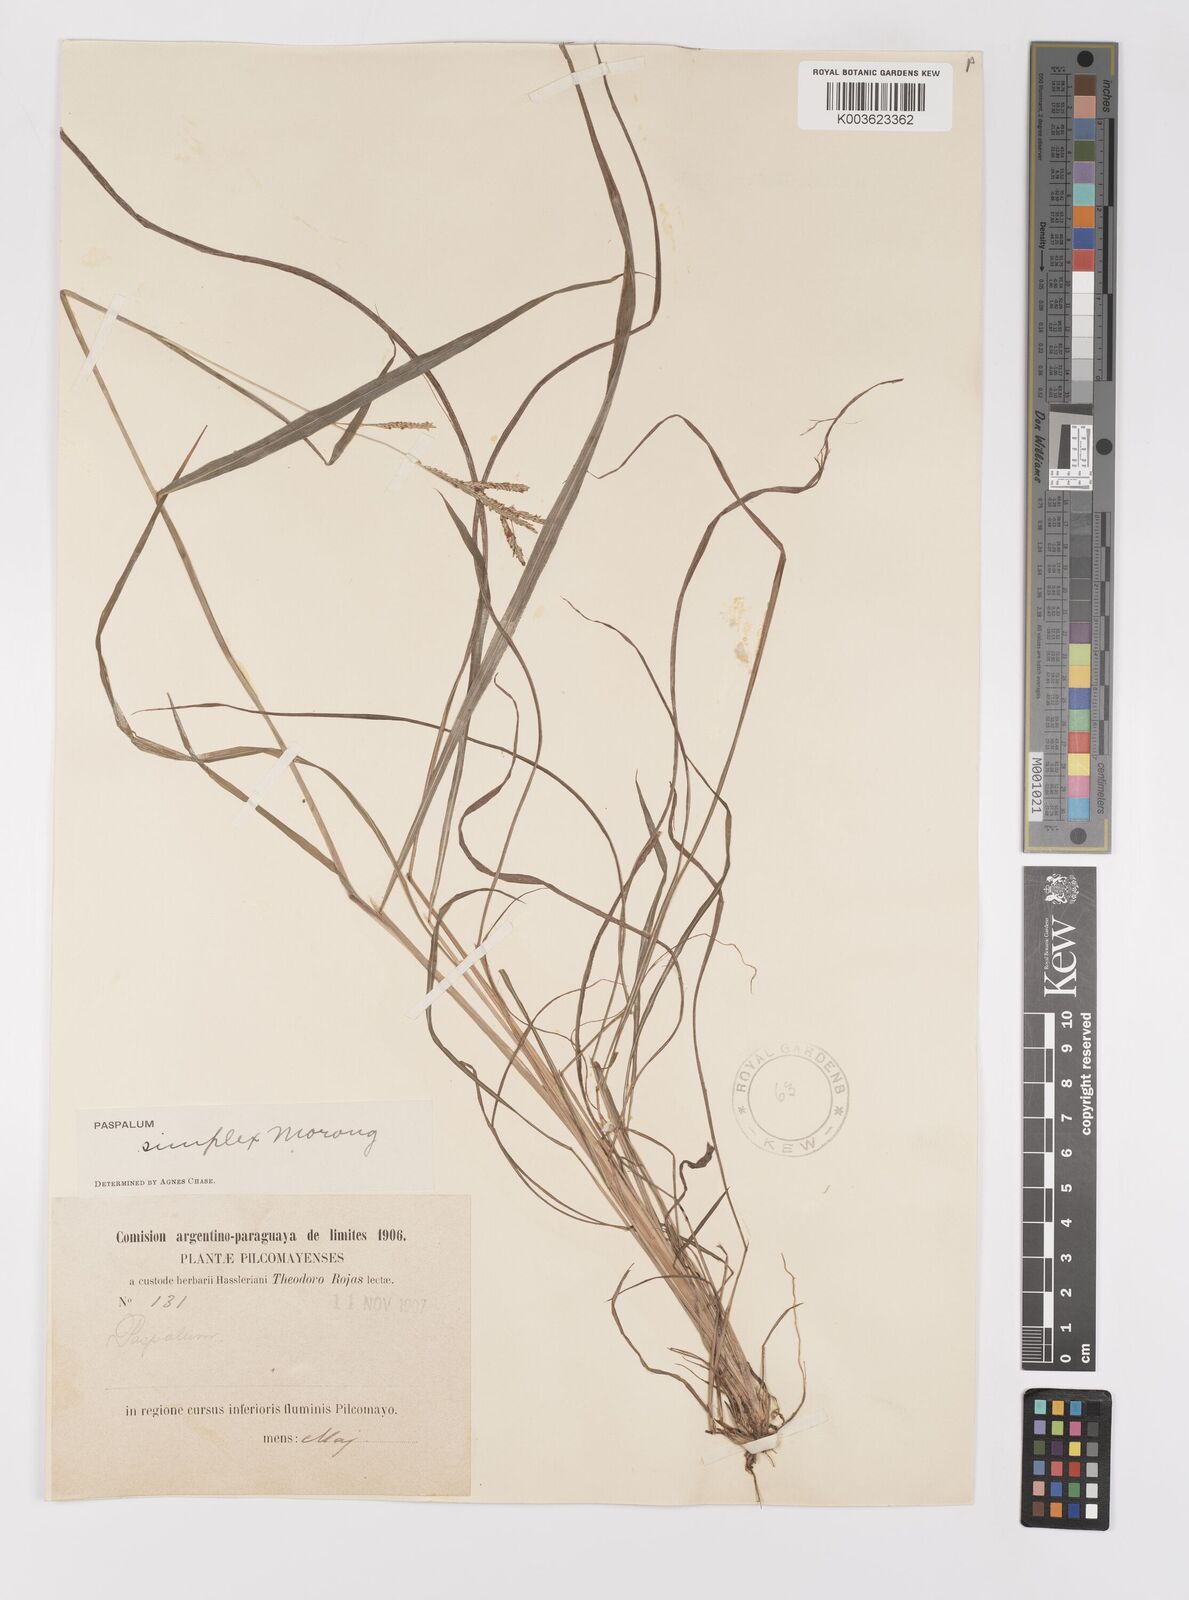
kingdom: Plantae
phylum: Tracheophyta
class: Liliopsida
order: Poales
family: Poaceae
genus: Paspalum
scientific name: Paspalum simplex
